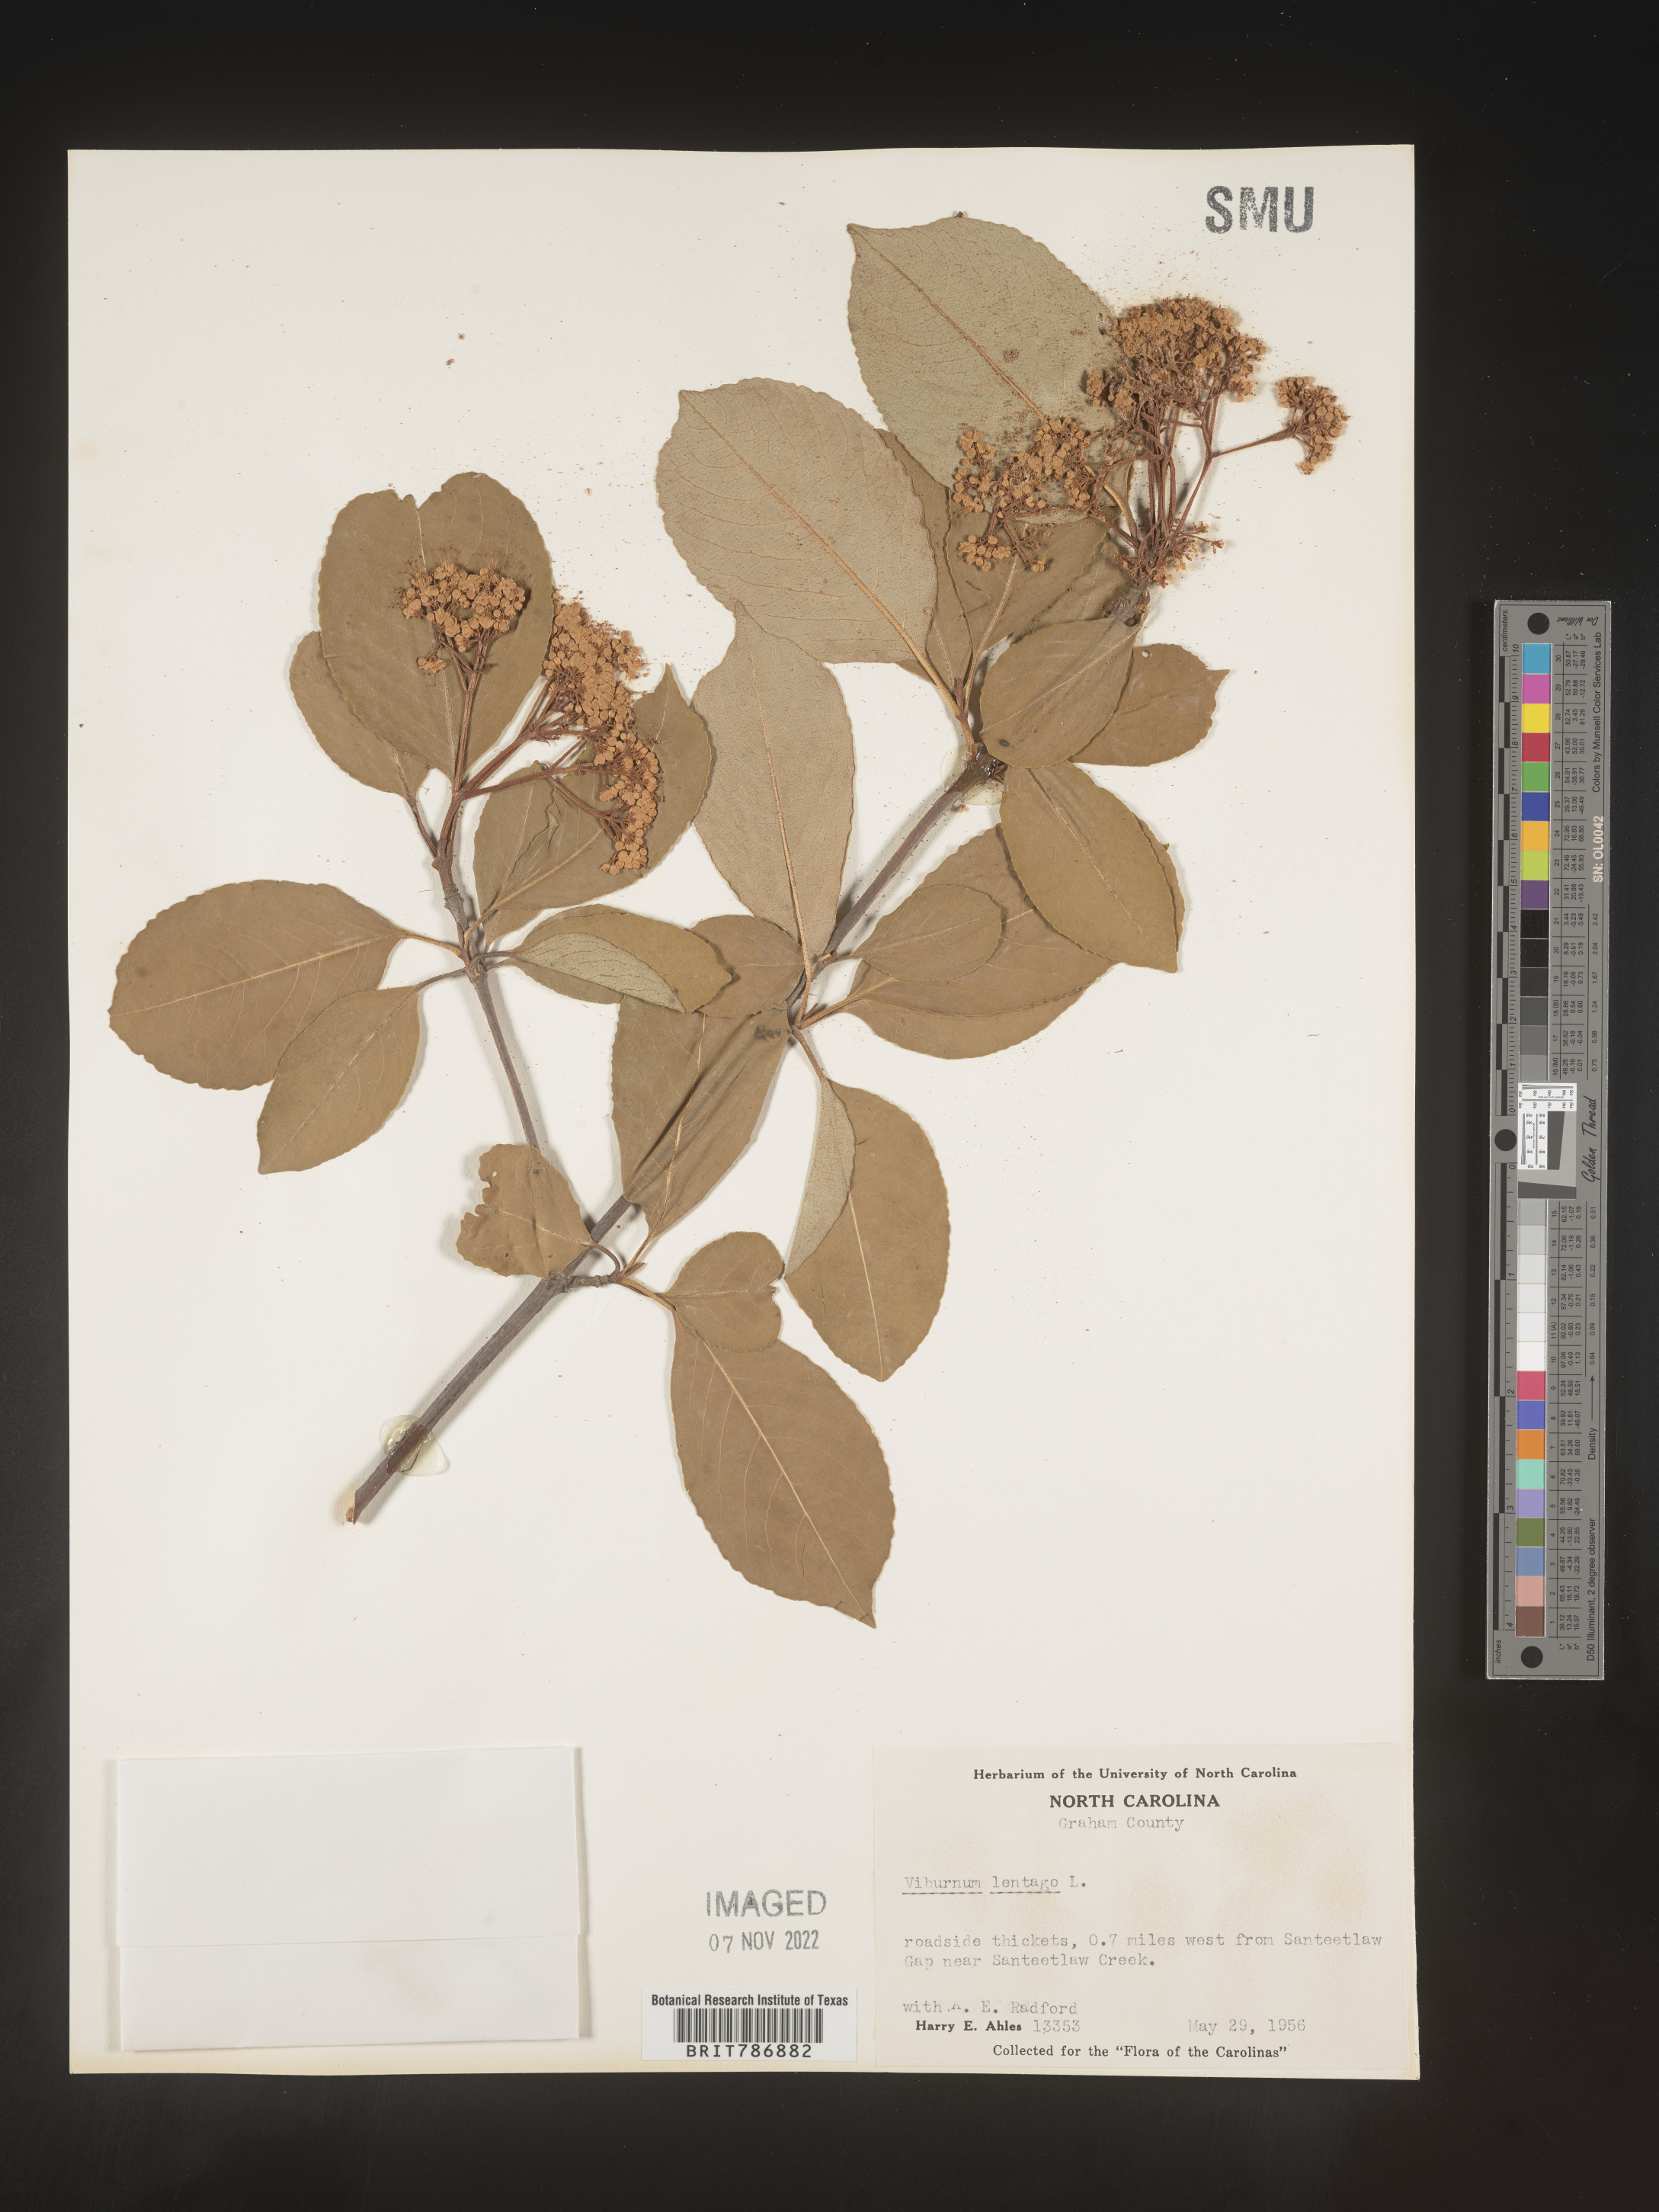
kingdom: Plantae
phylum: Tracheophyta
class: Magnoliopsida
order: Dipsacales
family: Viburnaceae
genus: Viburnum
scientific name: Viburnum lentago
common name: Black haw
